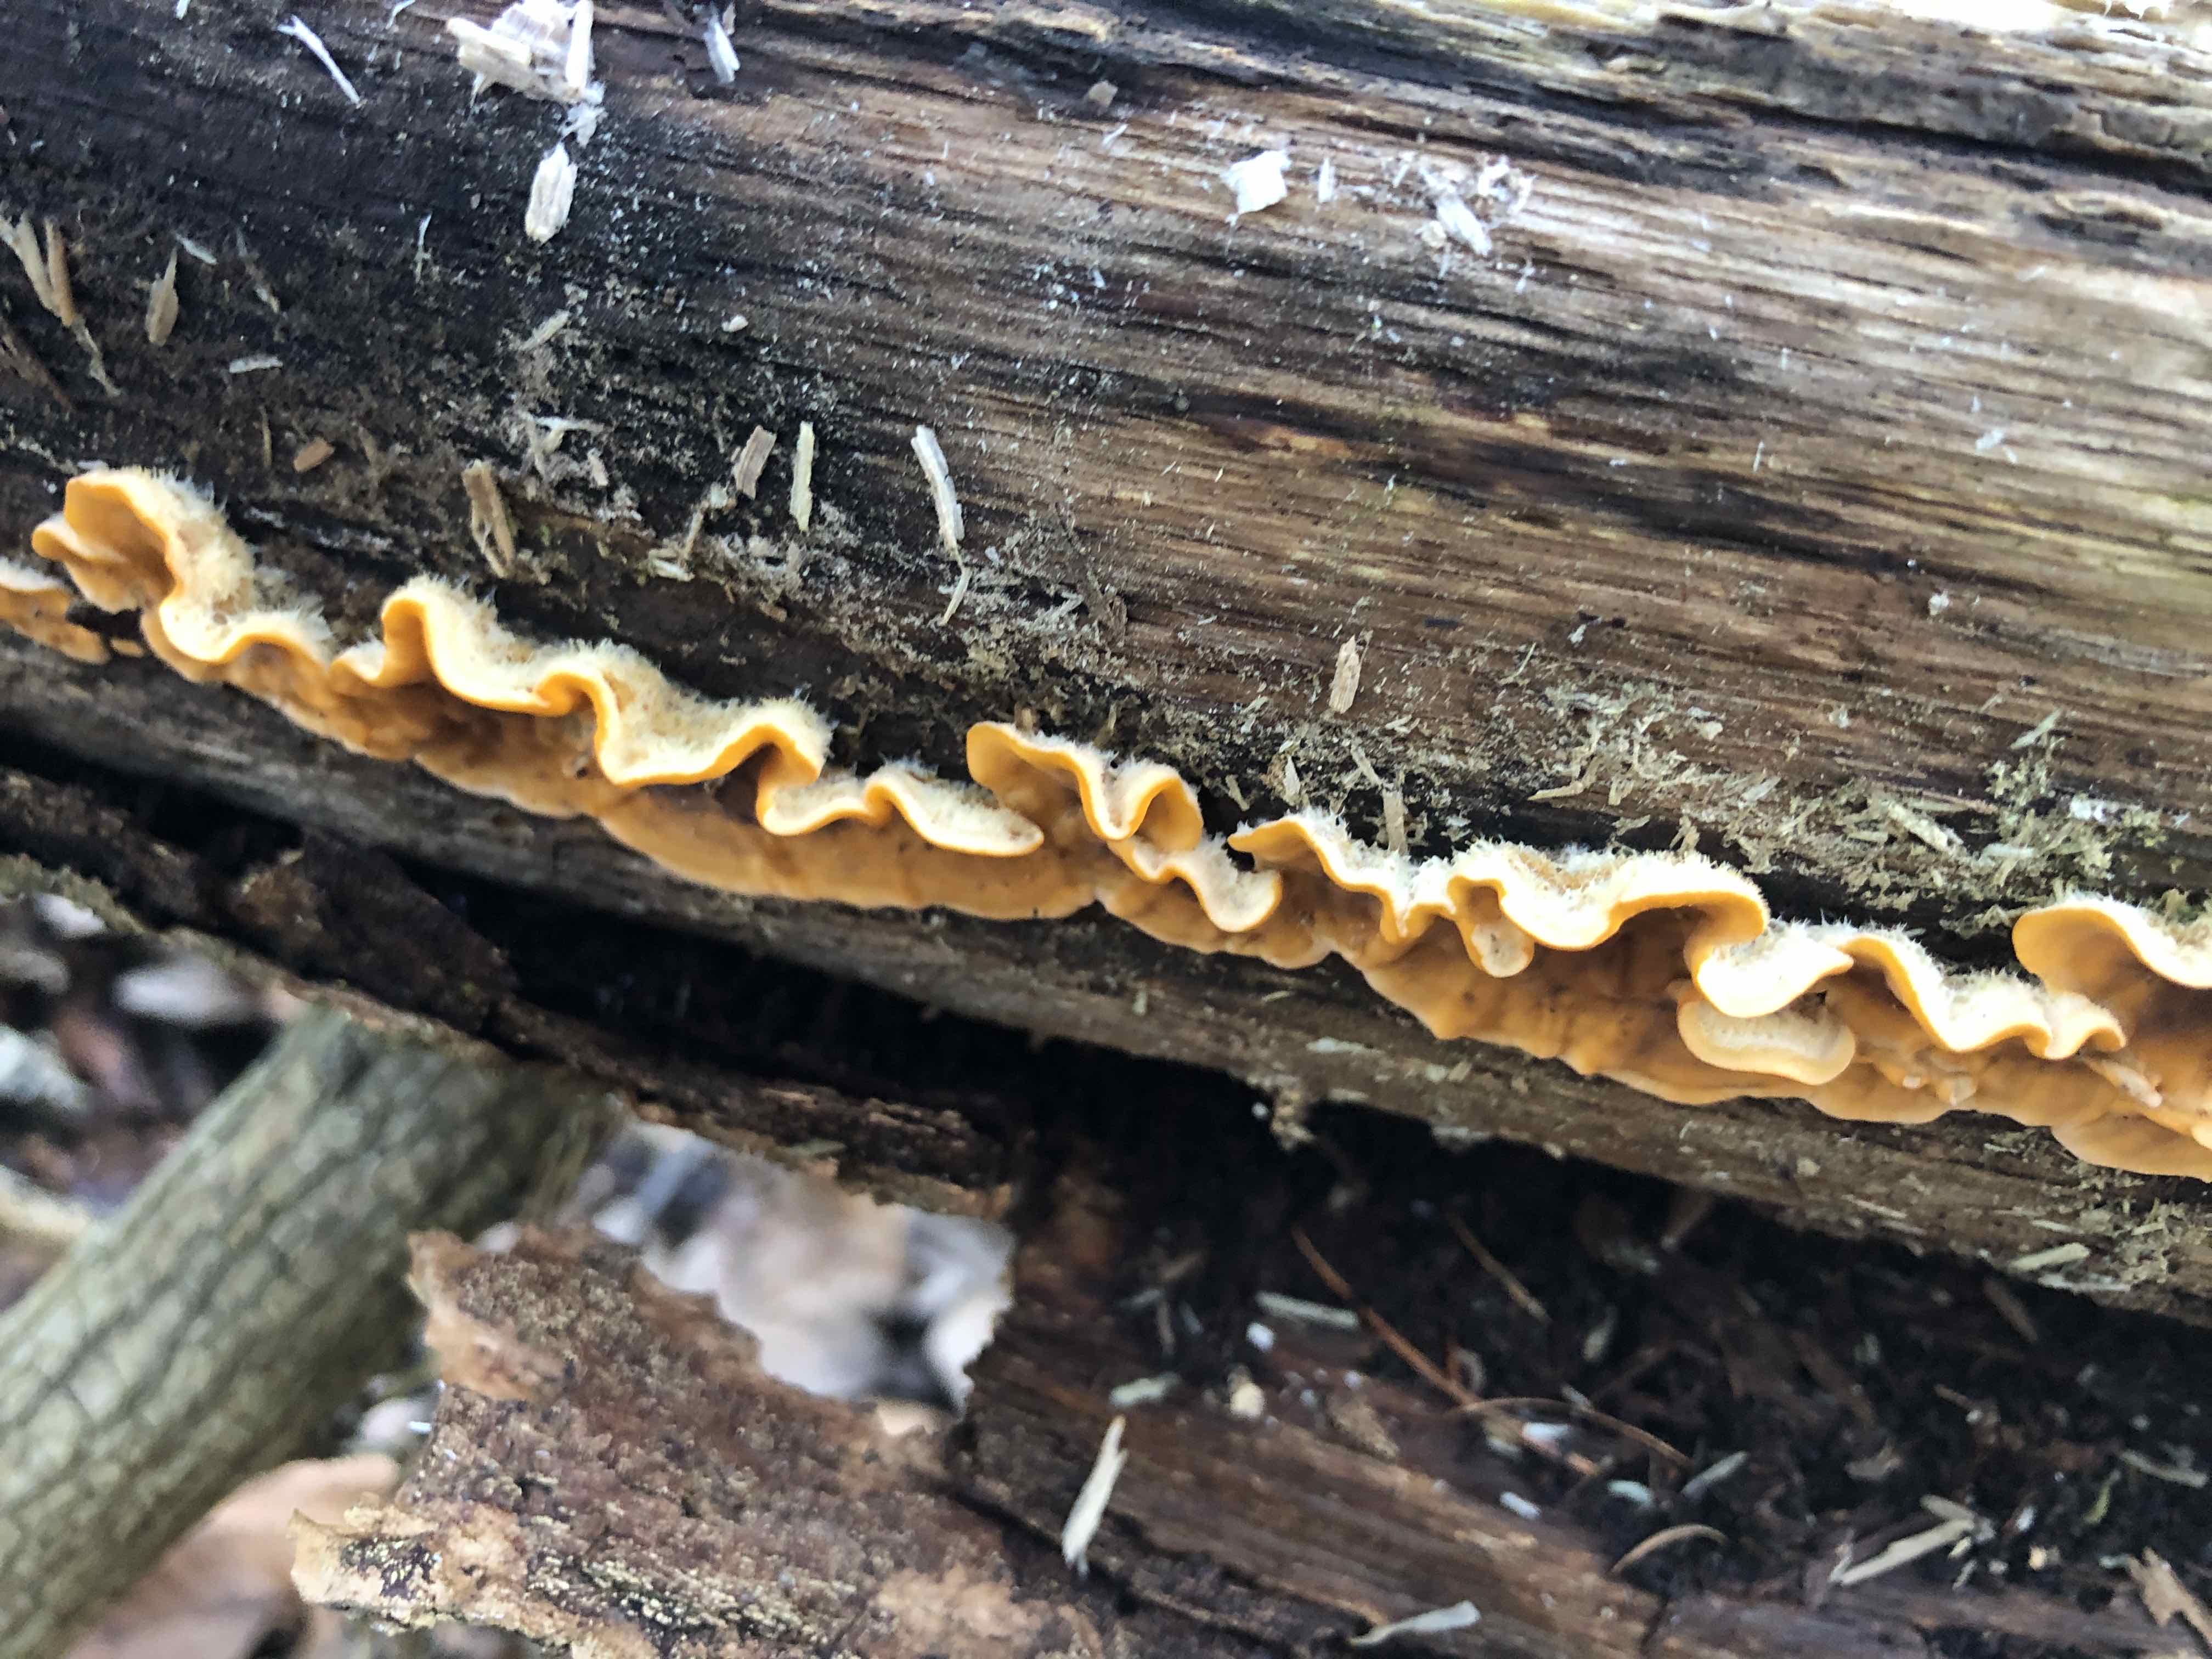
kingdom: Fungi
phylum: Basidiomycota
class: Agaricomycetes
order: Russulales
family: Stereaceae
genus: Stereum
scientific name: Stereum hirsutum
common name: håret lædersvamp
